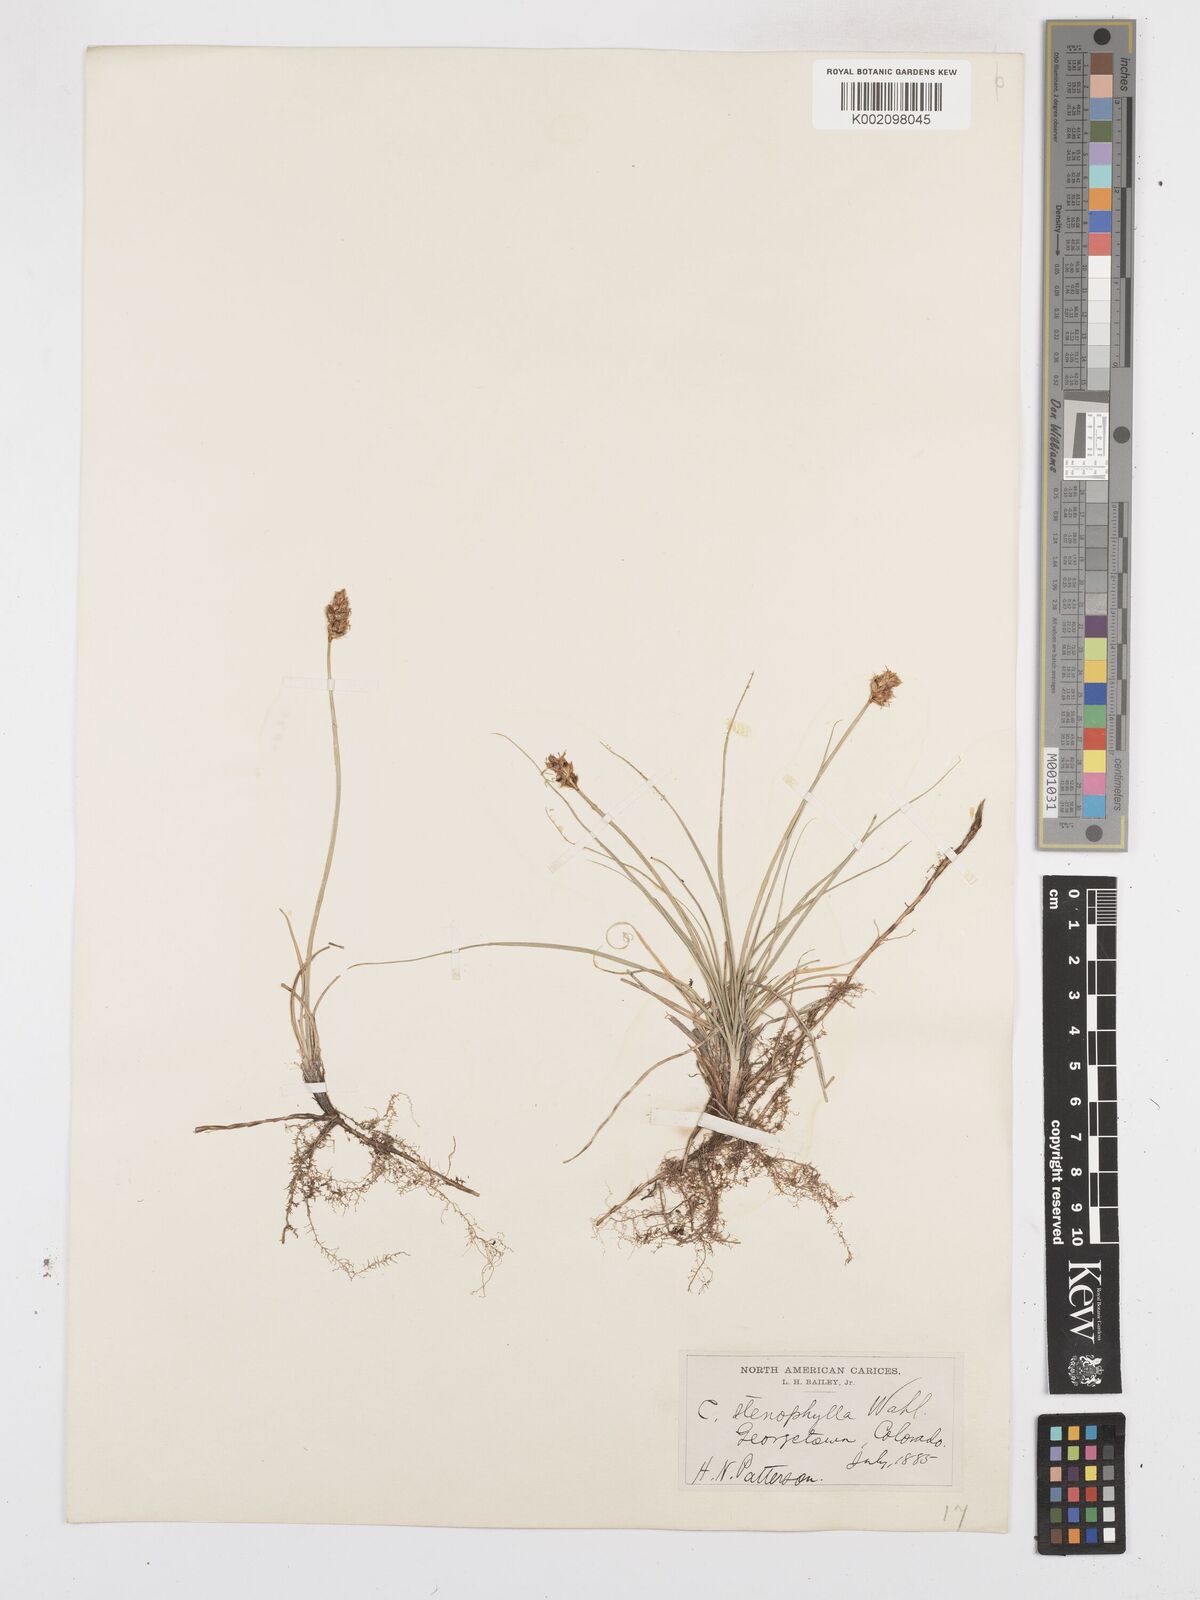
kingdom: Plantae
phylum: Tracheophyta
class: Liliopsida
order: Poales
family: Cyperaceae
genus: Carex
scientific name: Carex duriuscula
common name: Involute-leaved sedge
